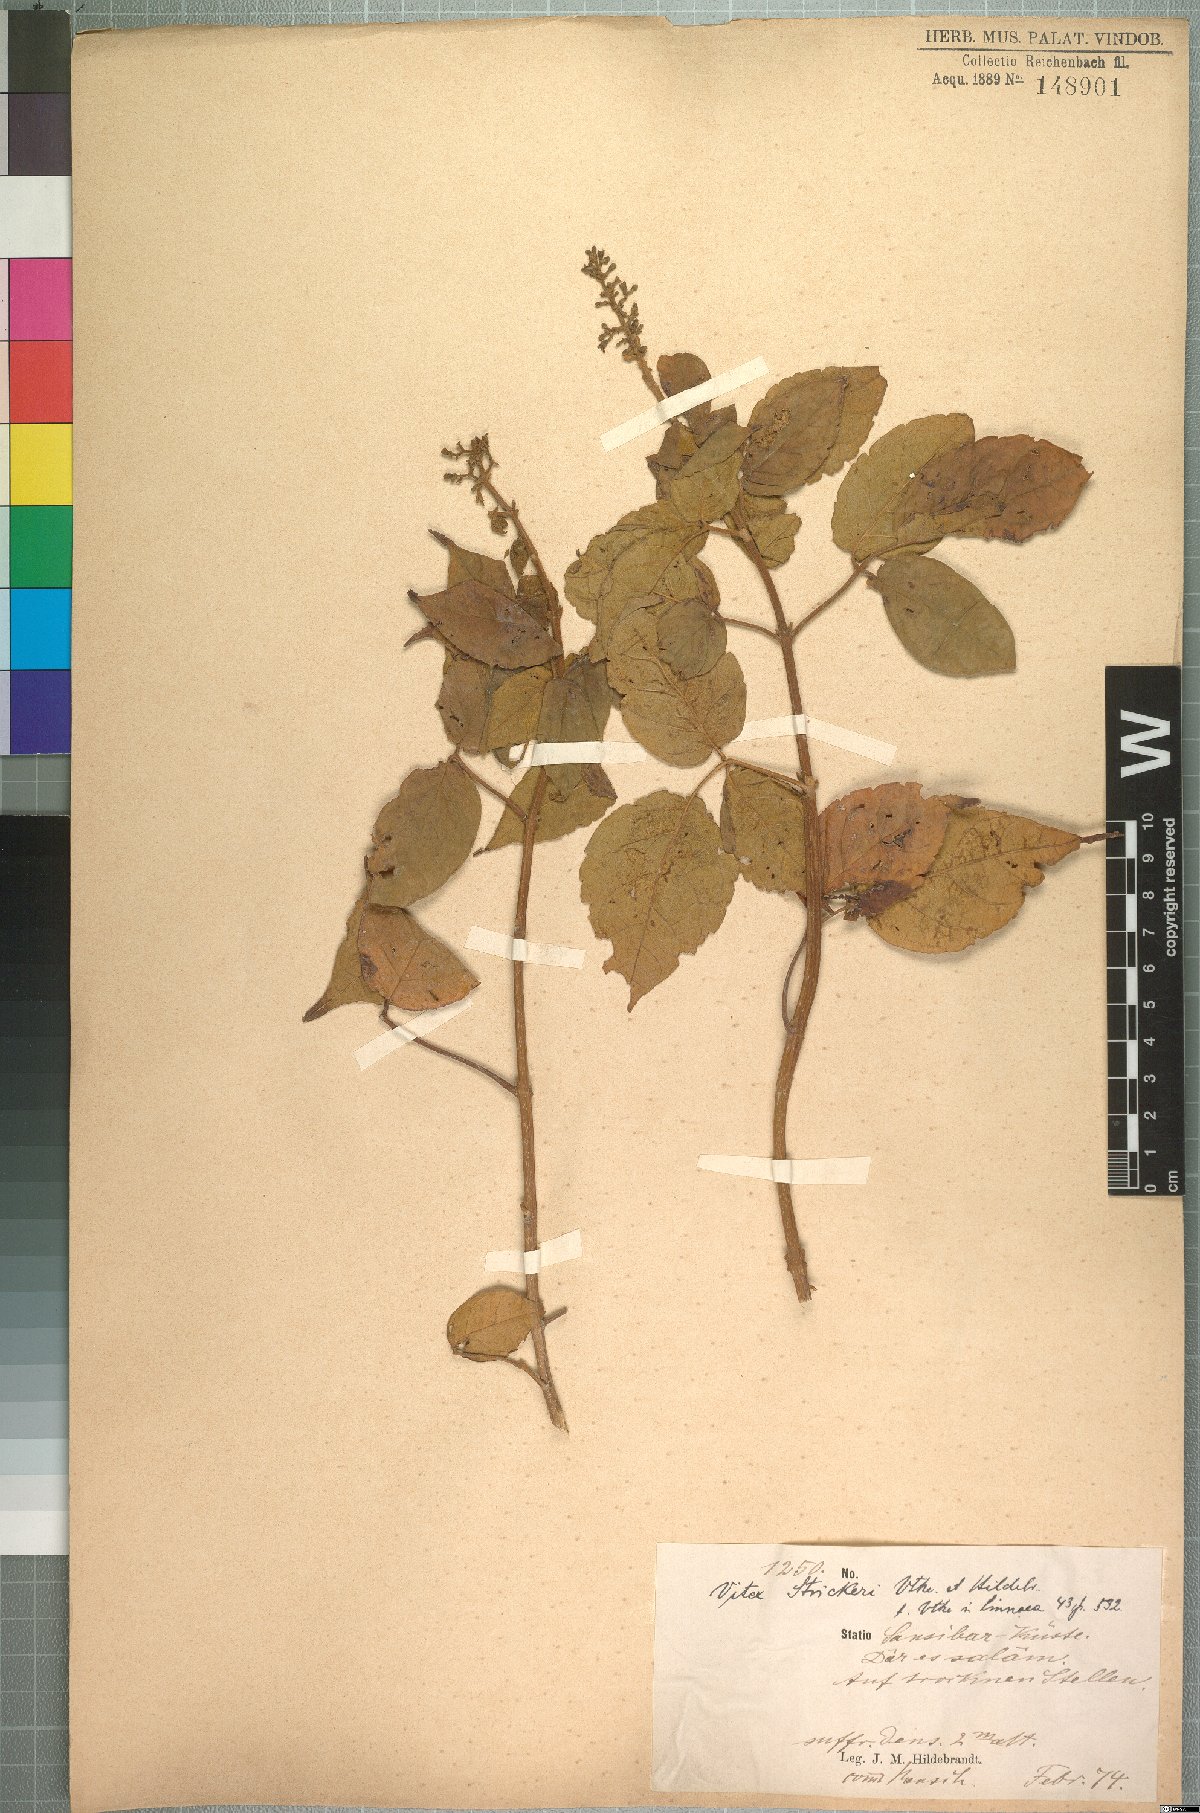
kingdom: Plantae
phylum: Tracheophyta
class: Magnoliopsida
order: Lamiales
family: Lamiaceae
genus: Vitex
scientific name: Vitex strickeri
